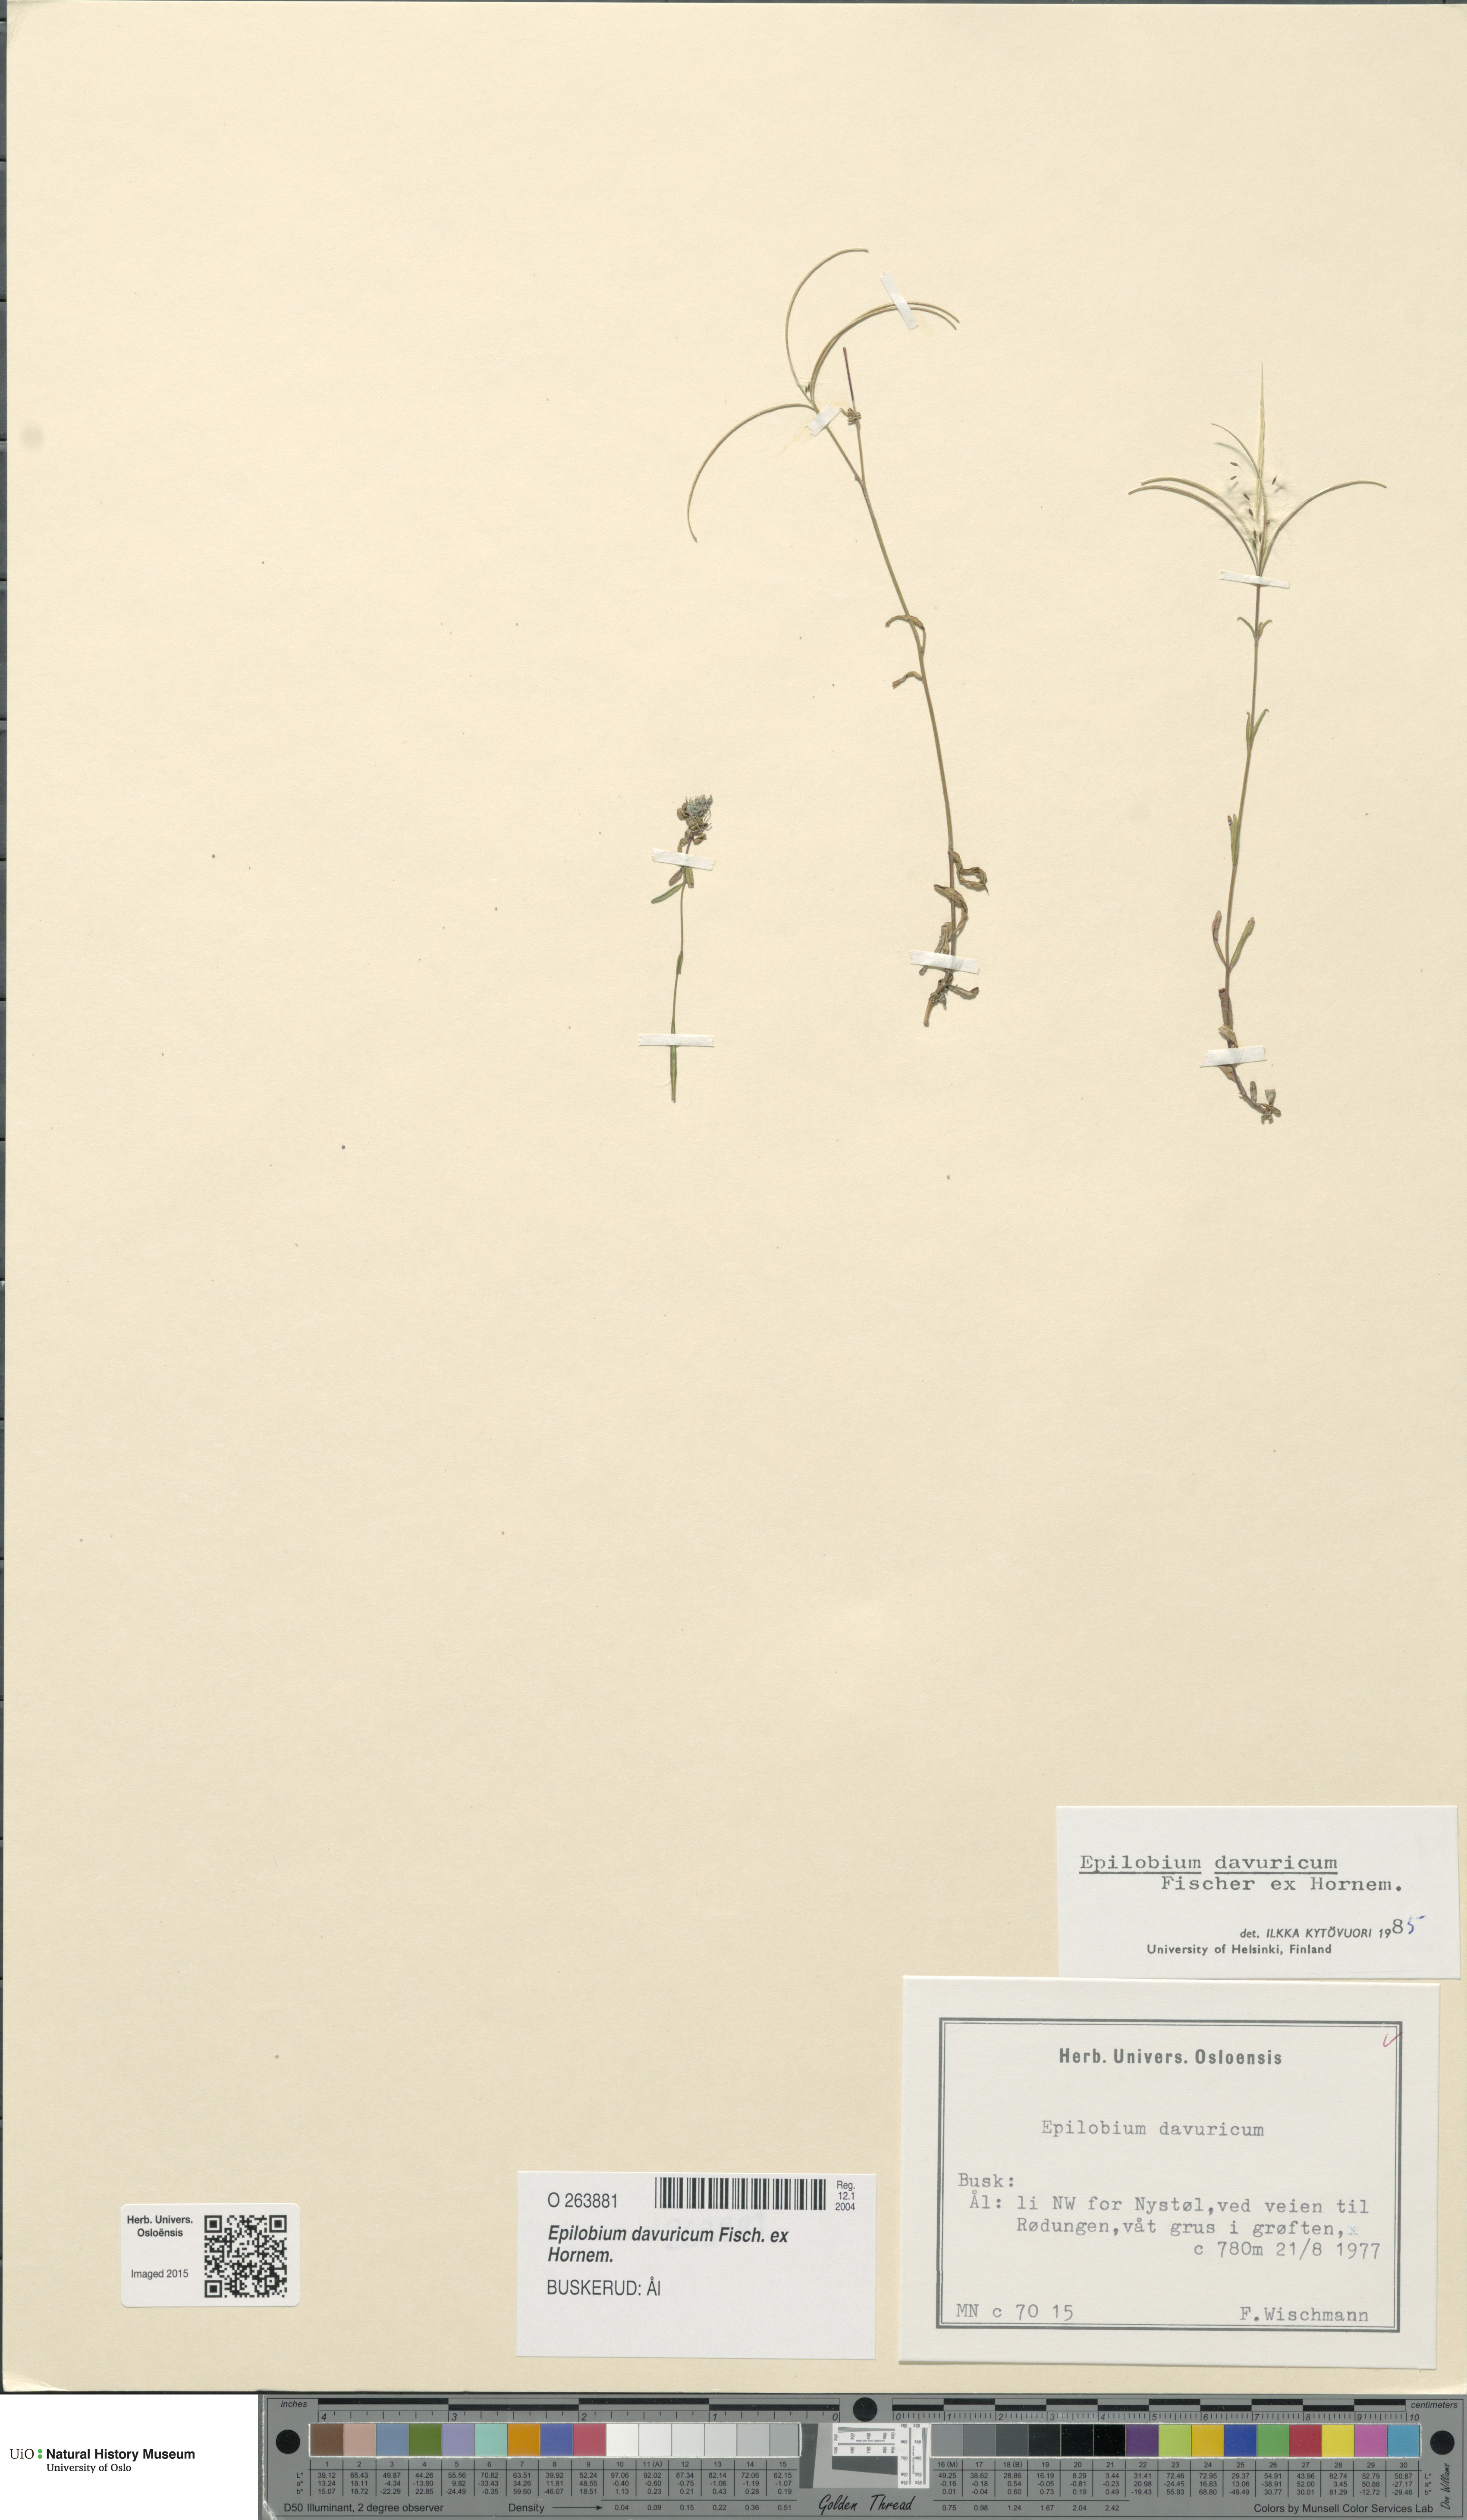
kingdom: Plantae
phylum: Tracheophyta
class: Magnoliopsida
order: Myrtales
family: Onagraceae
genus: Epilobium
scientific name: Epilobium davuricum
